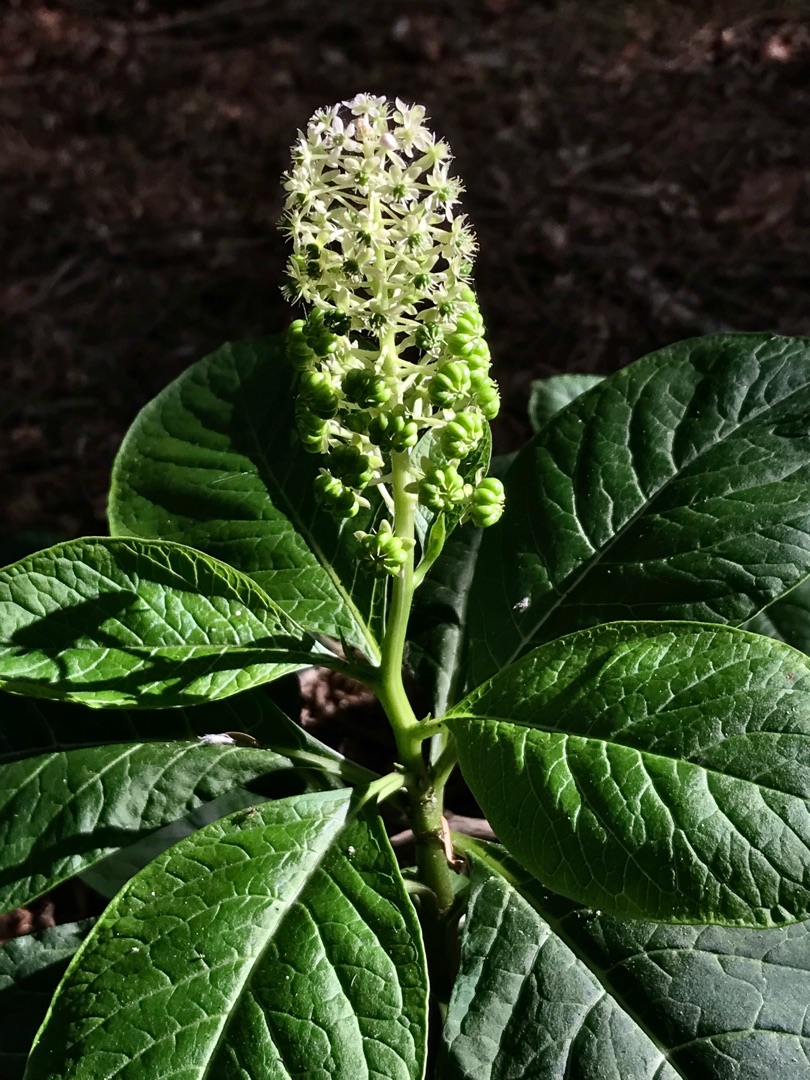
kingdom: Plantae
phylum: Tracheophyta
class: Magnoliopsida
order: Caryophyllales
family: Phytolaccaceae
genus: Phytolacca
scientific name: Phytolacca acinosa
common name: Asiatisk kermesbær
